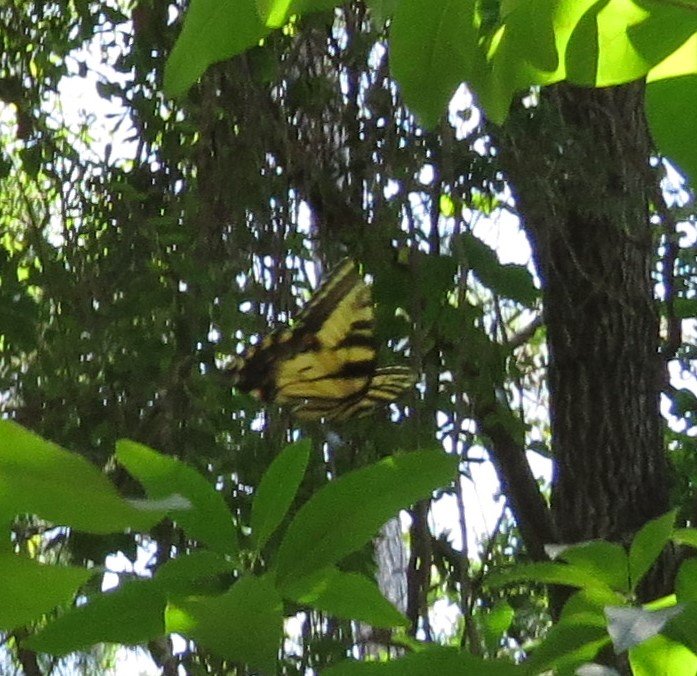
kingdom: Animalia
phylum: Arthropoda
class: Insecta
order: Lepidoptera
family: Papilionidae
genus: Pterourus
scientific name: Pterourus glaucus
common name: Eastern Tiger Swallowtail
